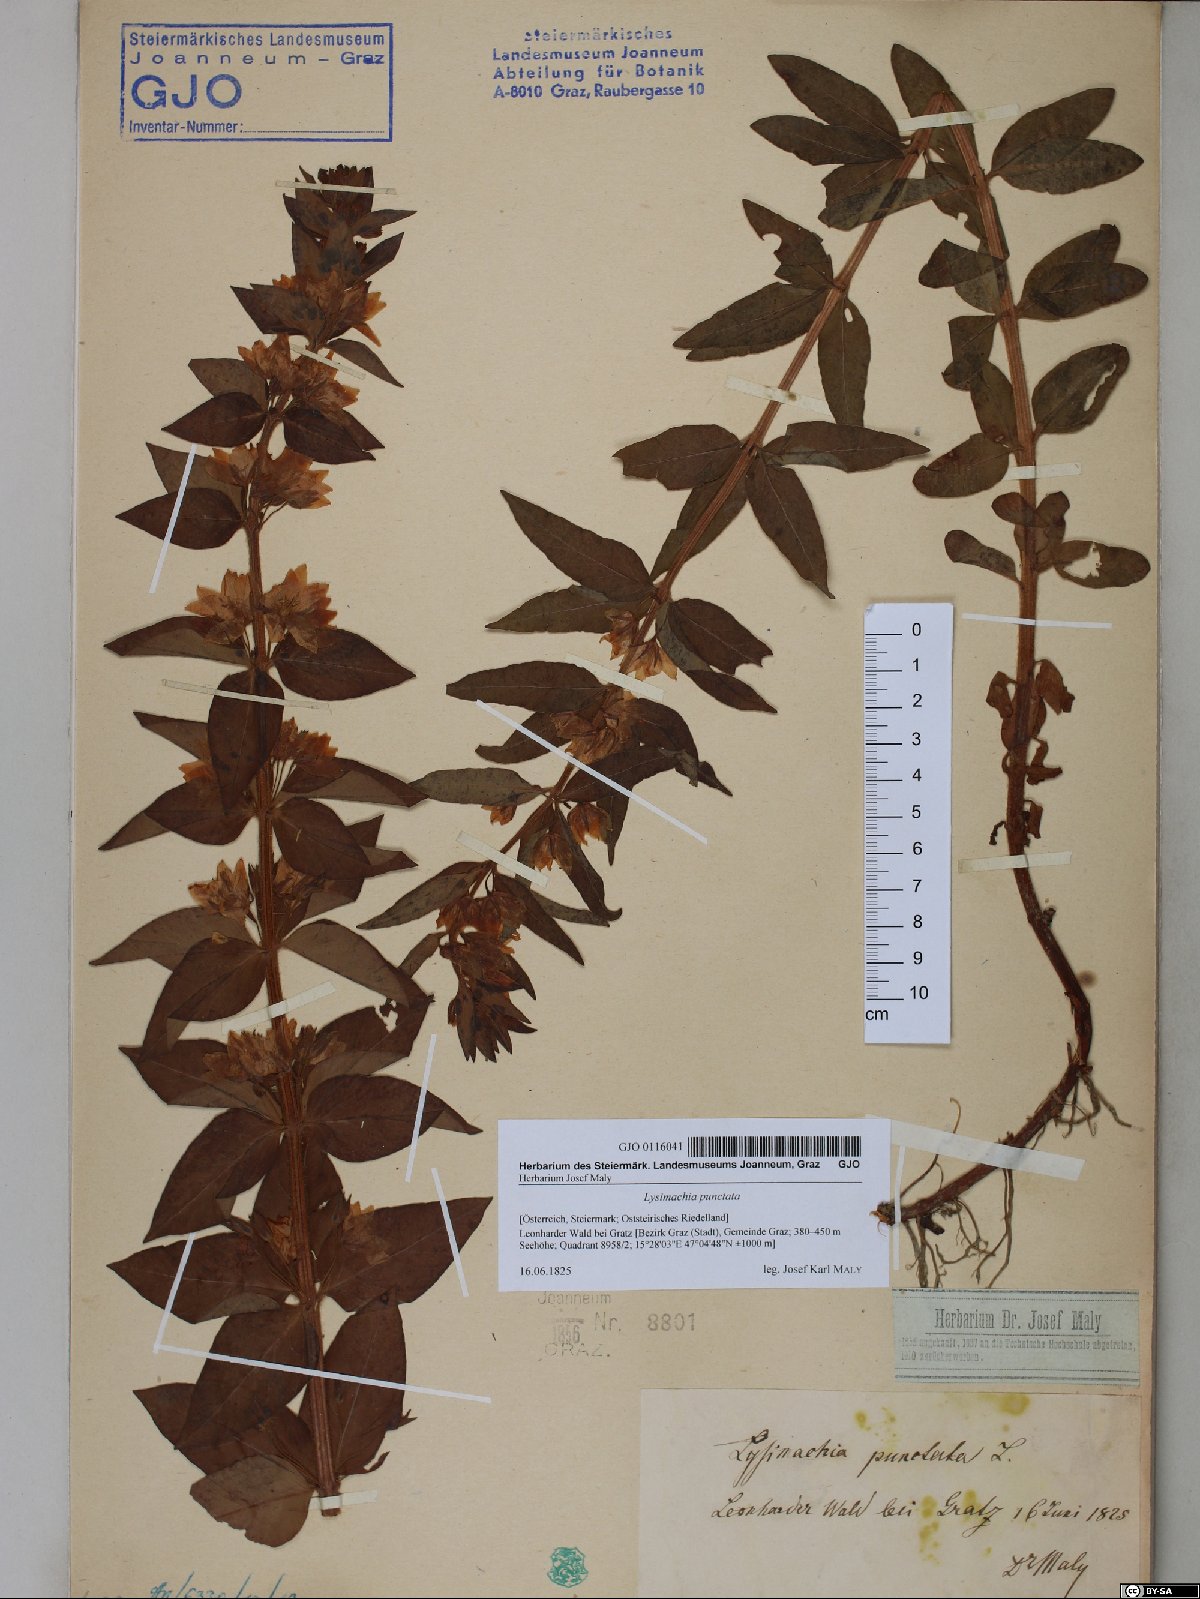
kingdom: Plantae
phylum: Tracheophyta
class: Magnoliopsida
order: Ericales
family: Primulaceae
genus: Lysimachia
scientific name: Lysimachia punctata
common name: Dotted loosestrife
